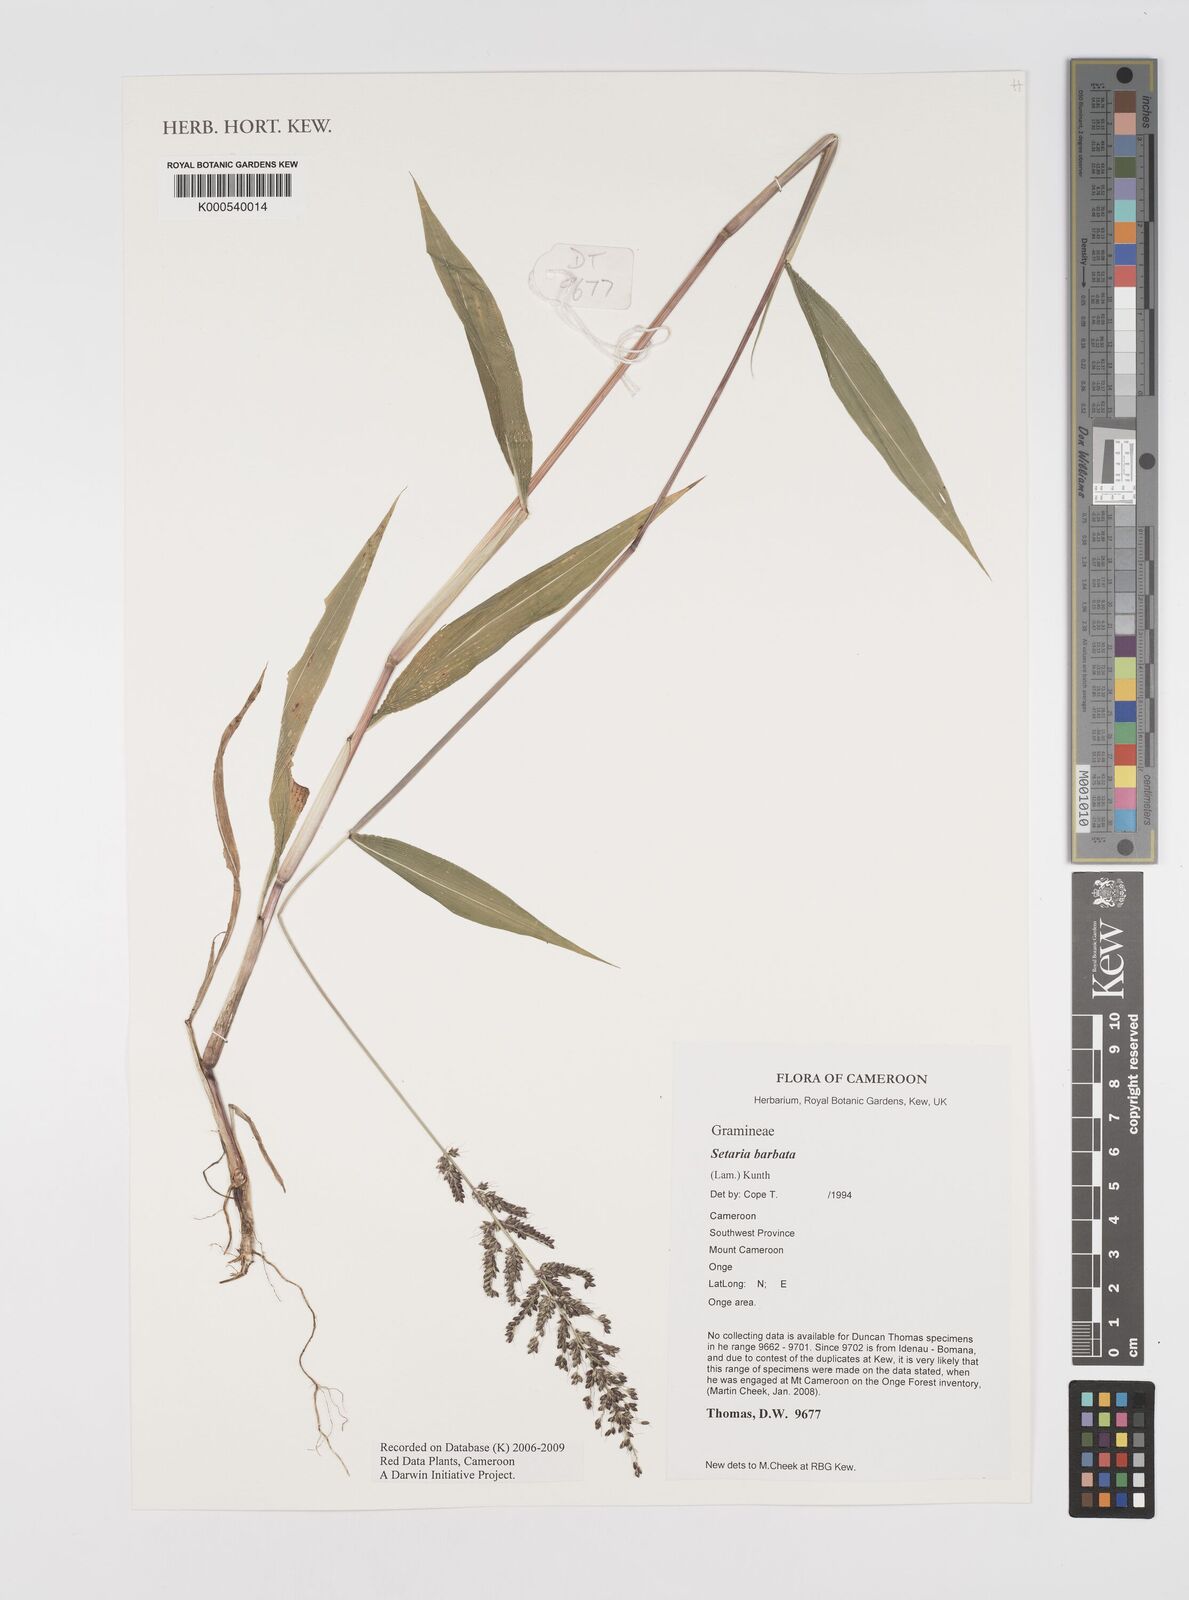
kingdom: Plantae
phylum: Tracheophyta
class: Liliopsida
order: Poales
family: Poaceae
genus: Setaria
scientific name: Setaria barbata
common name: East indian bristlegrass
